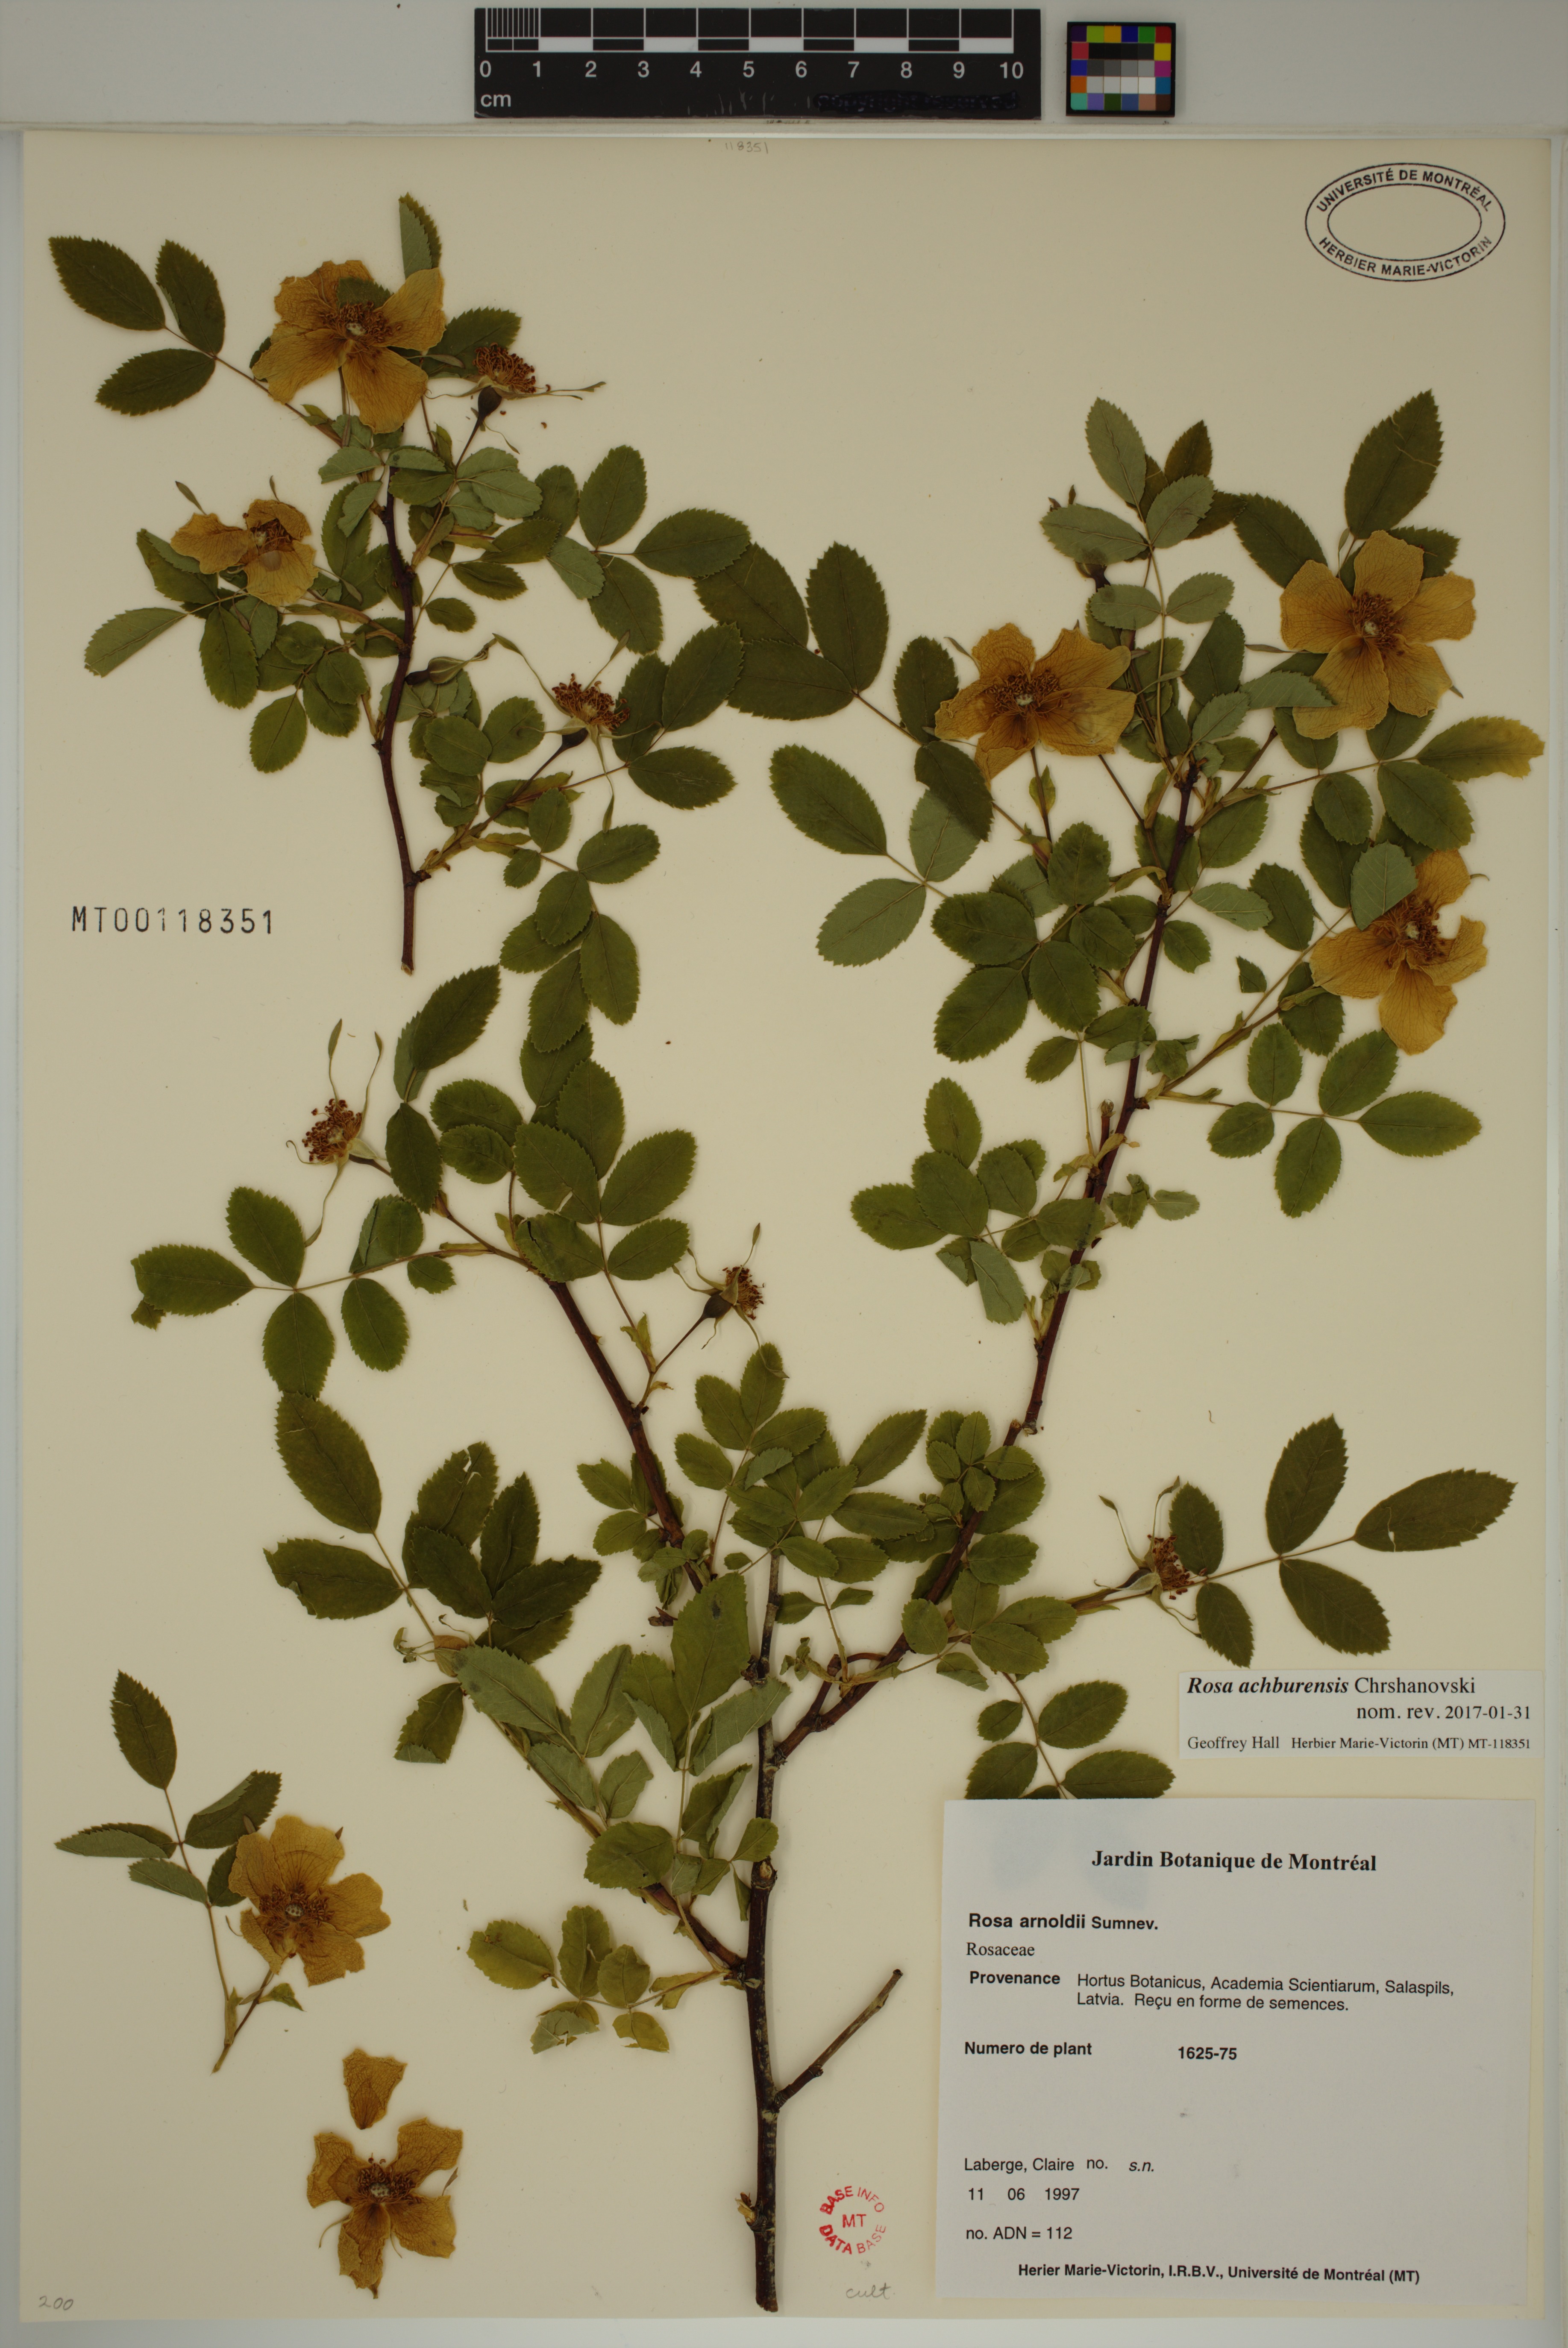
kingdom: Plantae
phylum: Tracheophyta
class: Magnoliopsida
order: Rosales
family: Rosaceae
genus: Rosa
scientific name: Rosa canina
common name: Dog rose
